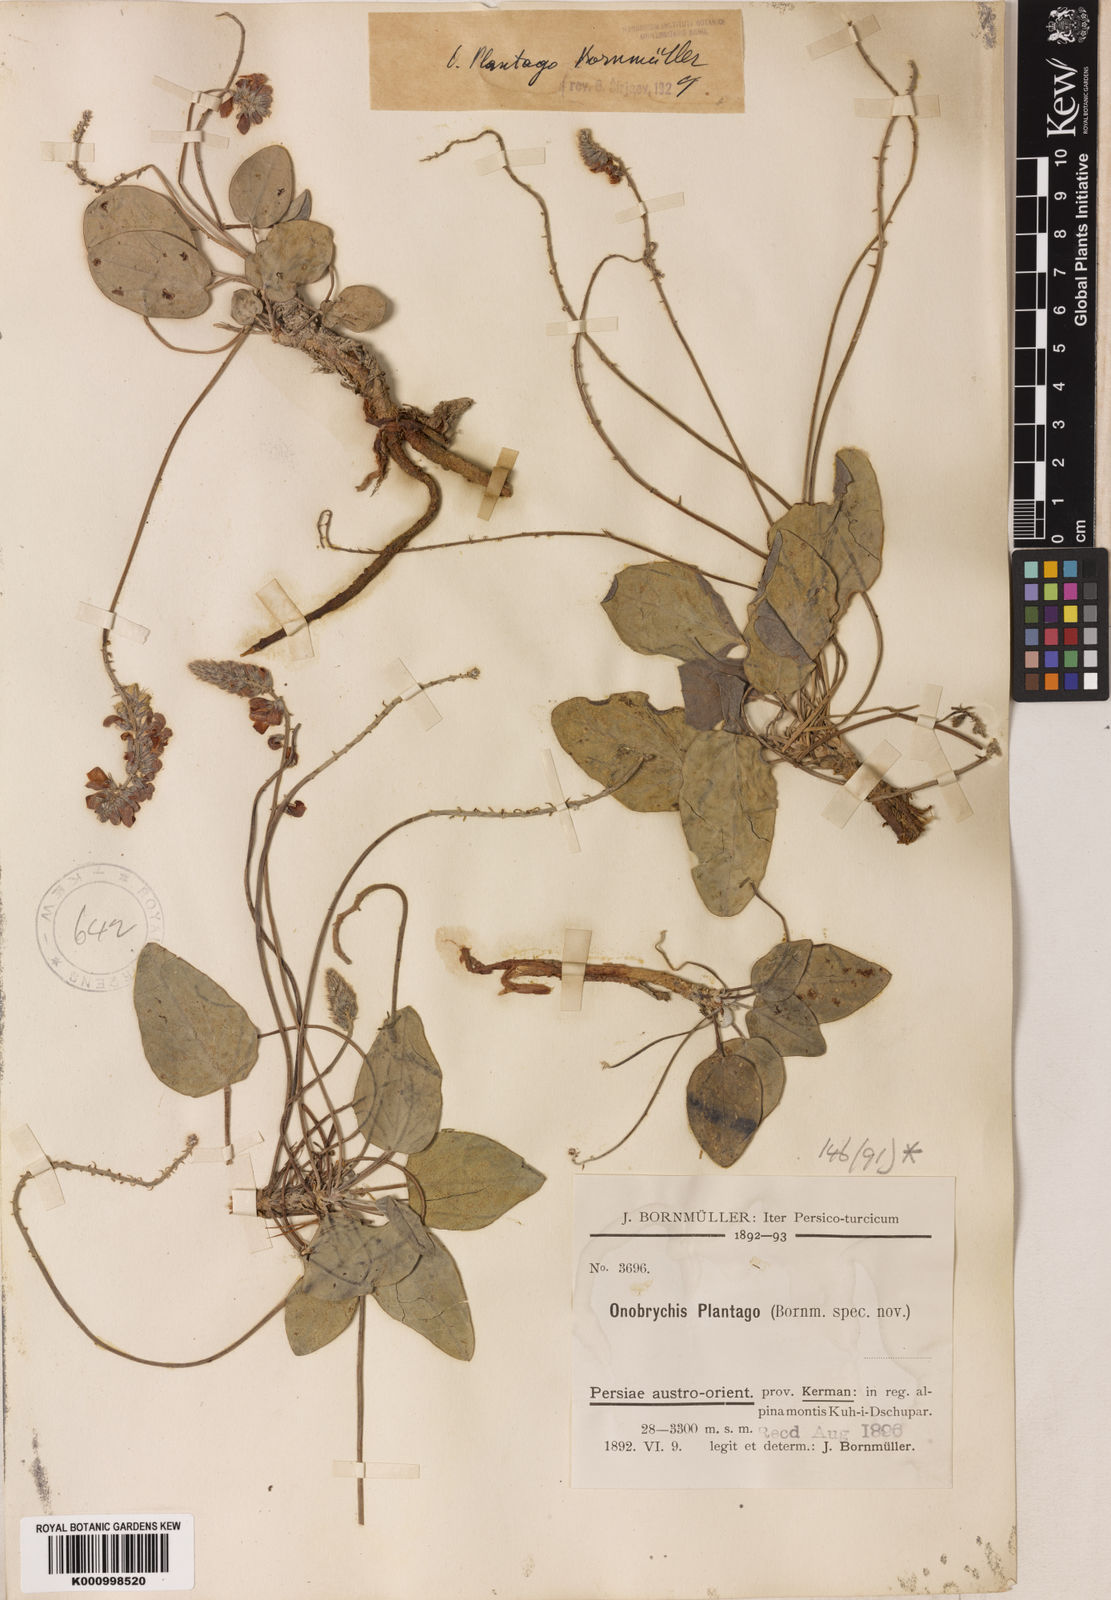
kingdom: Plantae
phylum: Tracheophyta
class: Magnoliopsida
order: Fabales
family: Fabaceae
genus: Onobrychis
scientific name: Onobrychis plantago
